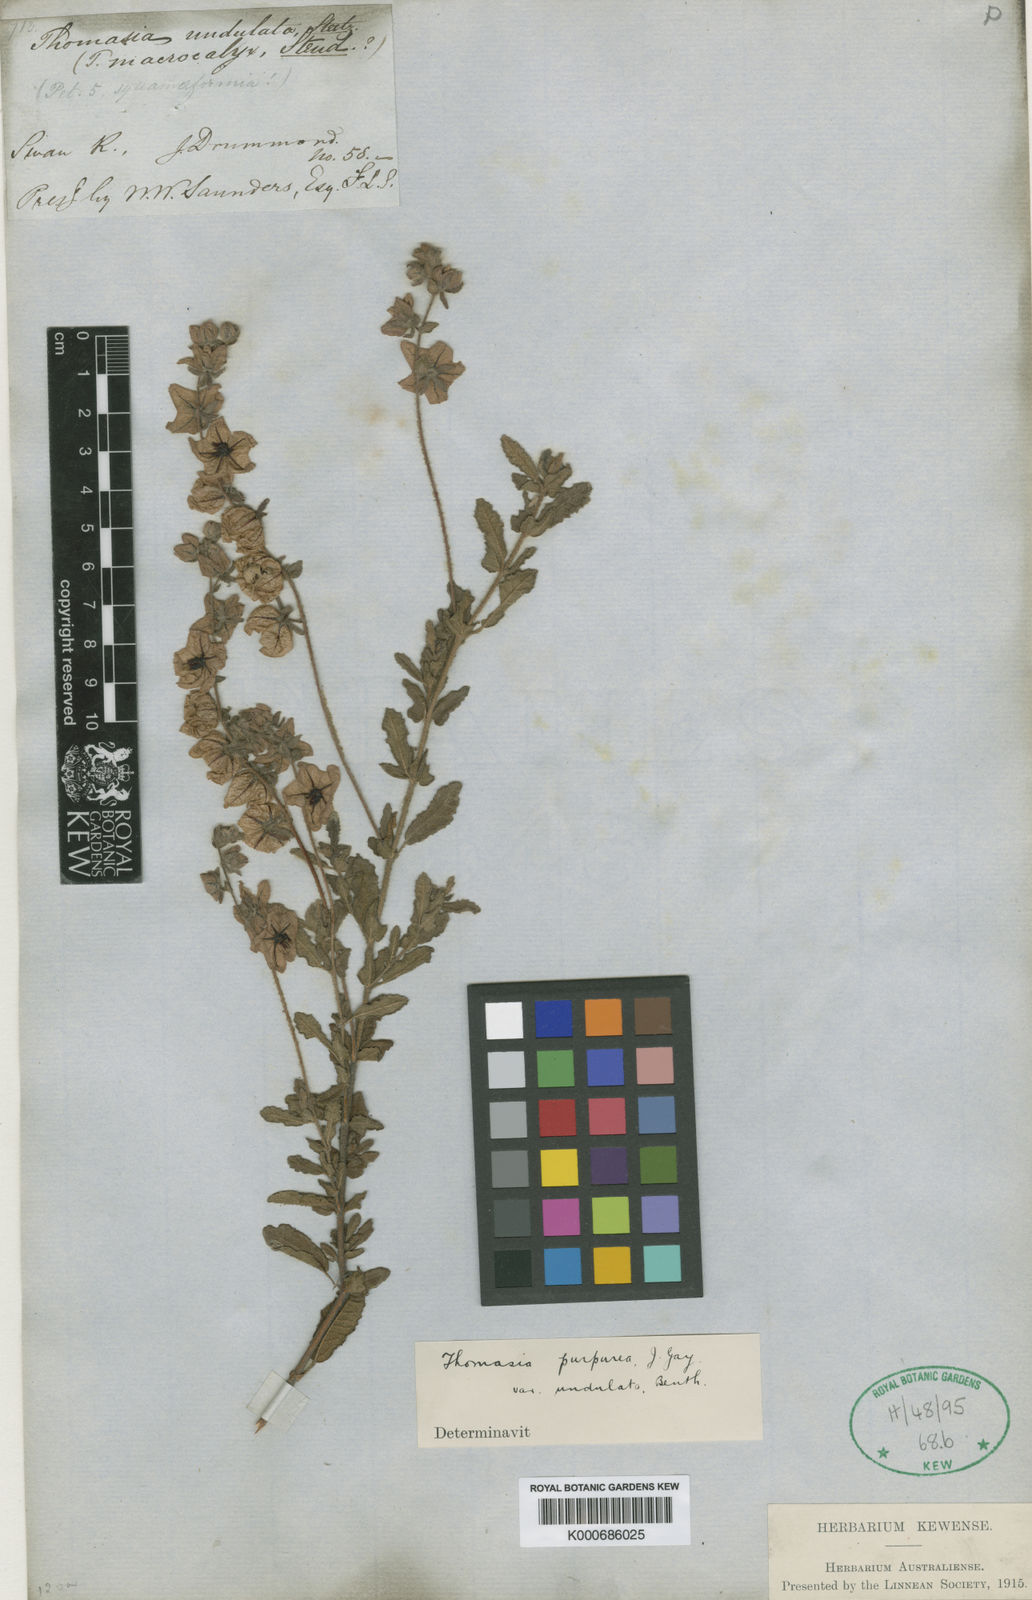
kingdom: Plantae
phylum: Tracheophyta
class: Magnoliopsida
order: Malvales
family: Malvaceae
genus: Thomasia
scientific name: Thomasia purpurea
